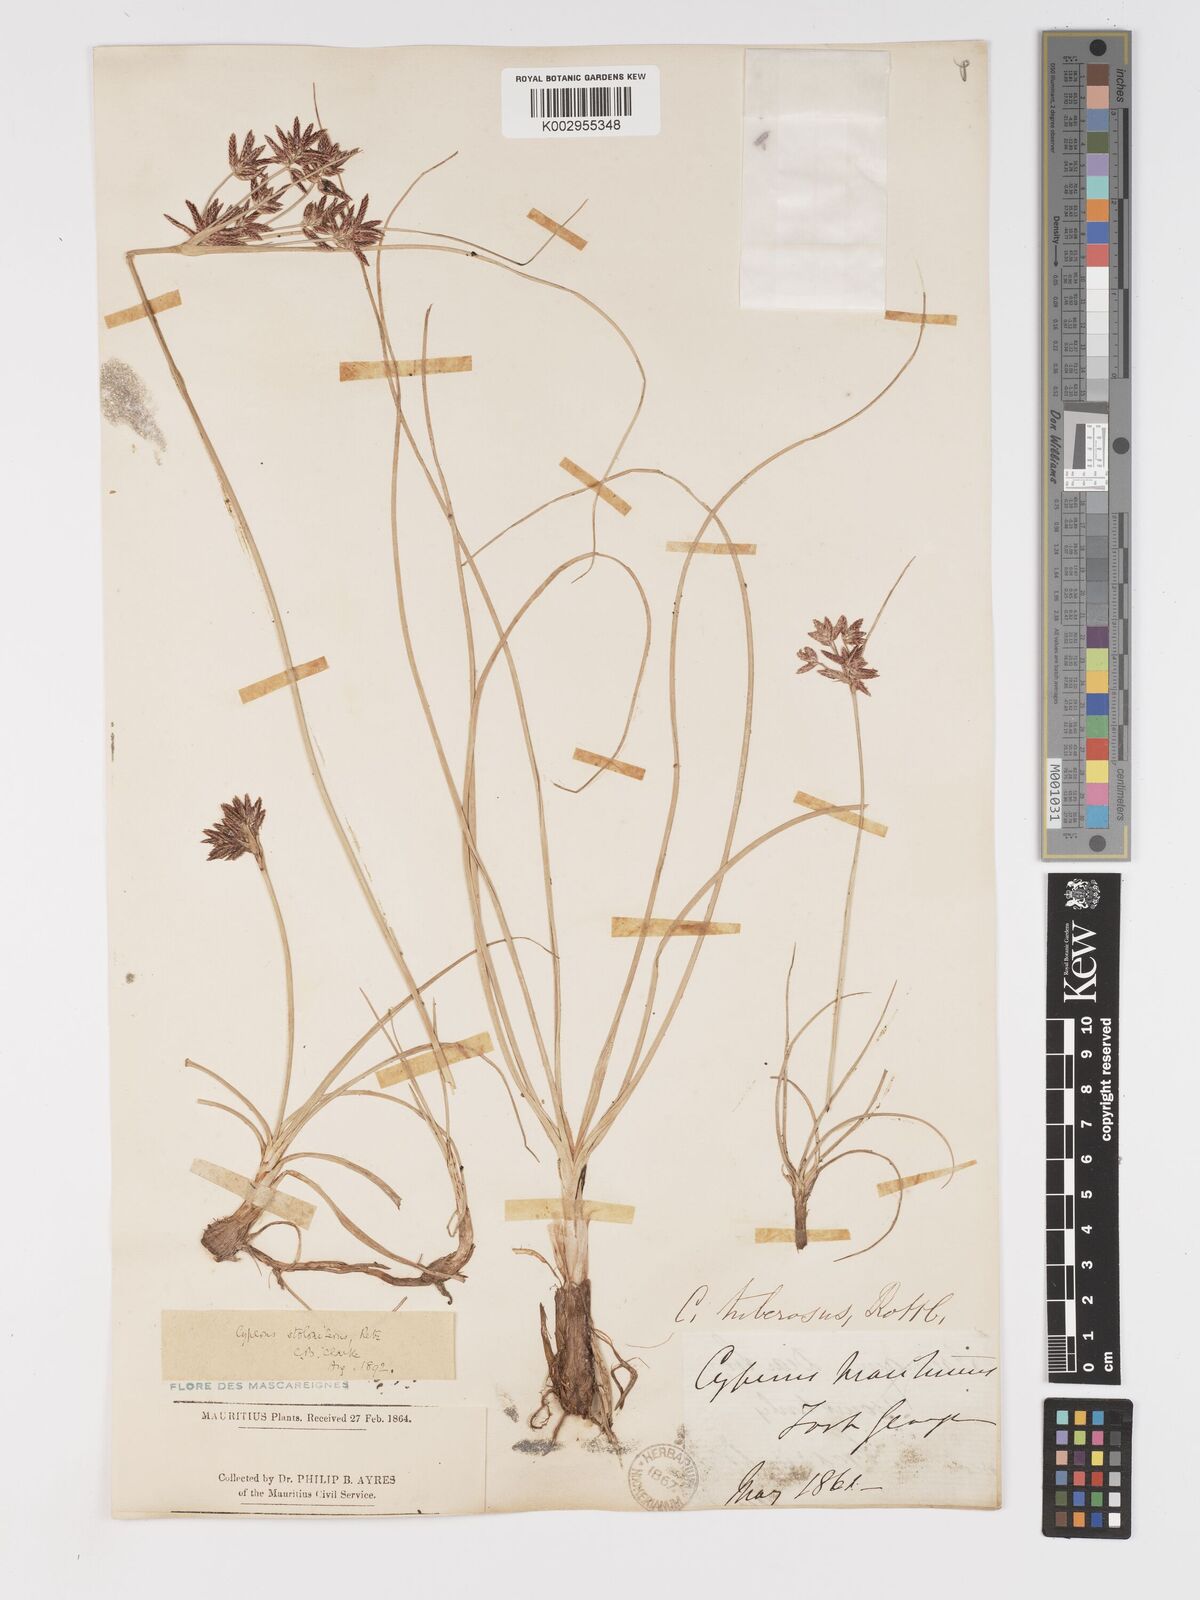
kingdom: Plantae
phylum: Tracheophyta
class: Liliopsida
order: Poales
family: Cyperaceae
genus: Cyperus
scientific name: Cyperus bulbosus
